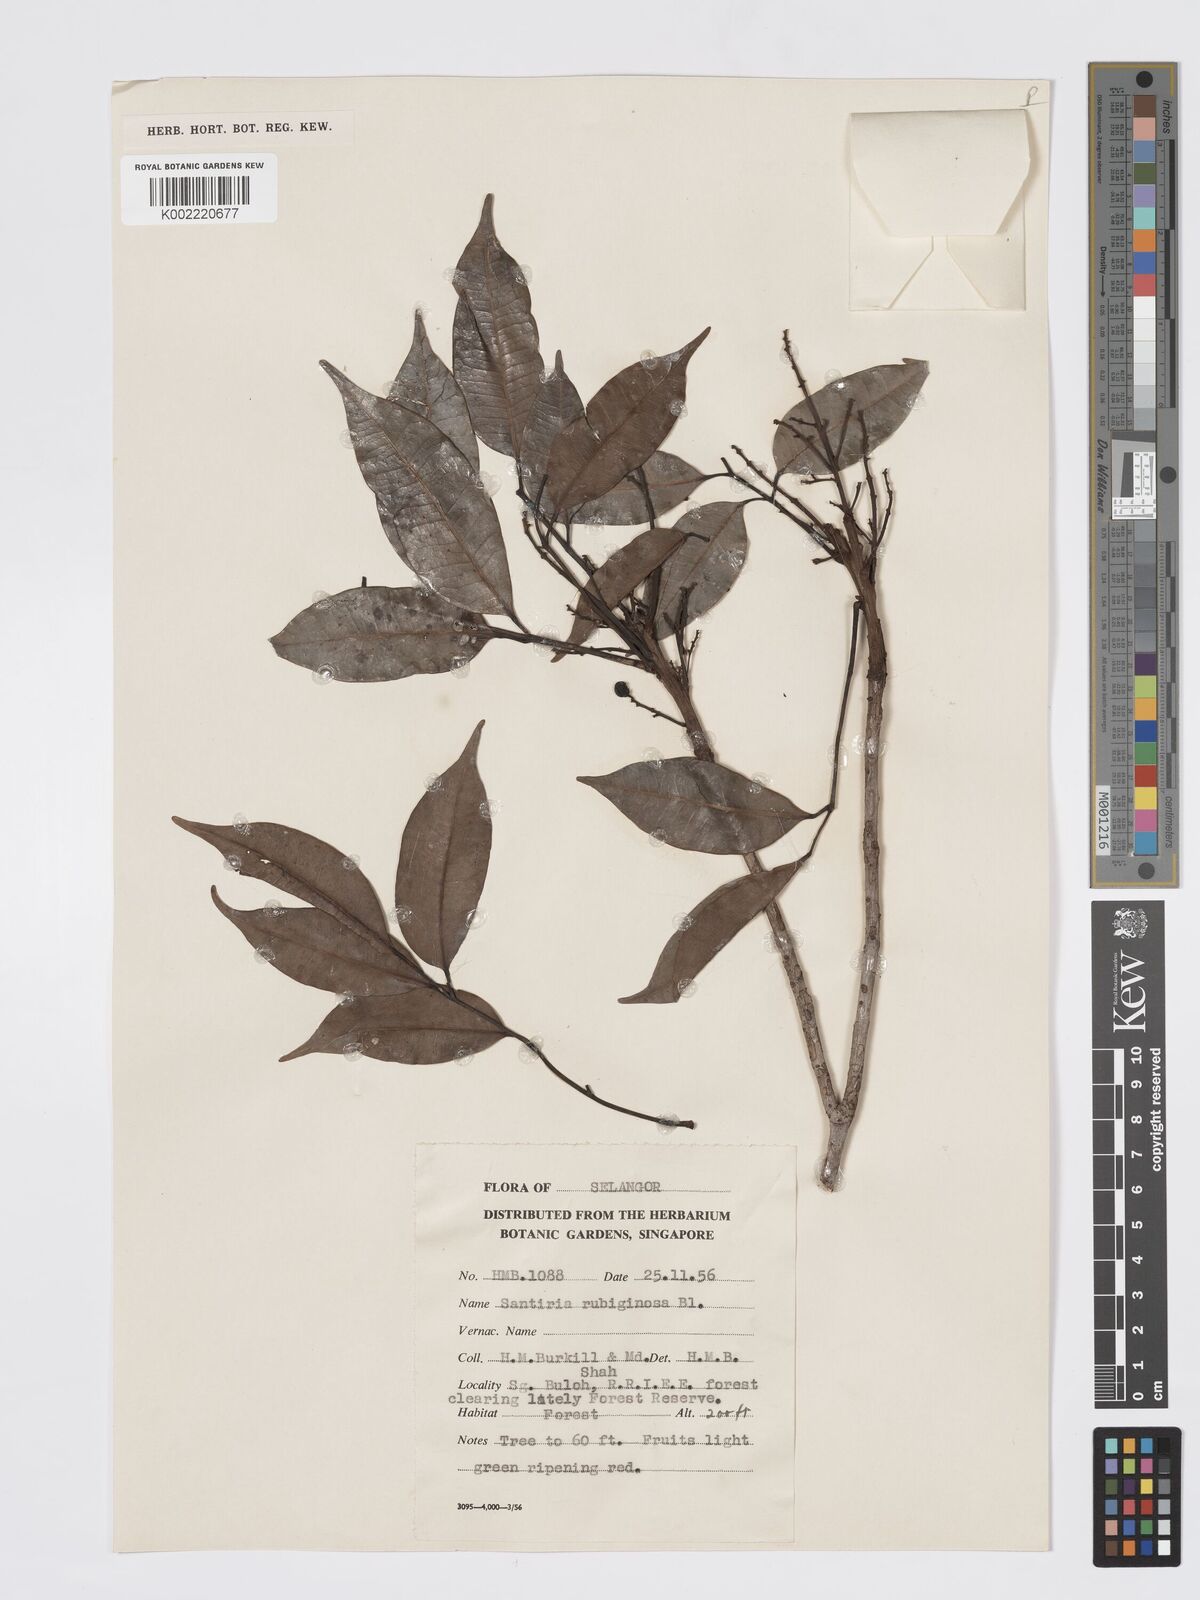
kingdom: Plantae
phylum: Tracheophyta
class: Magnoliopsida
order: Sapindales
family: Burseraceae
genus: Santiria
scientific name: Santiria rubiginosa
